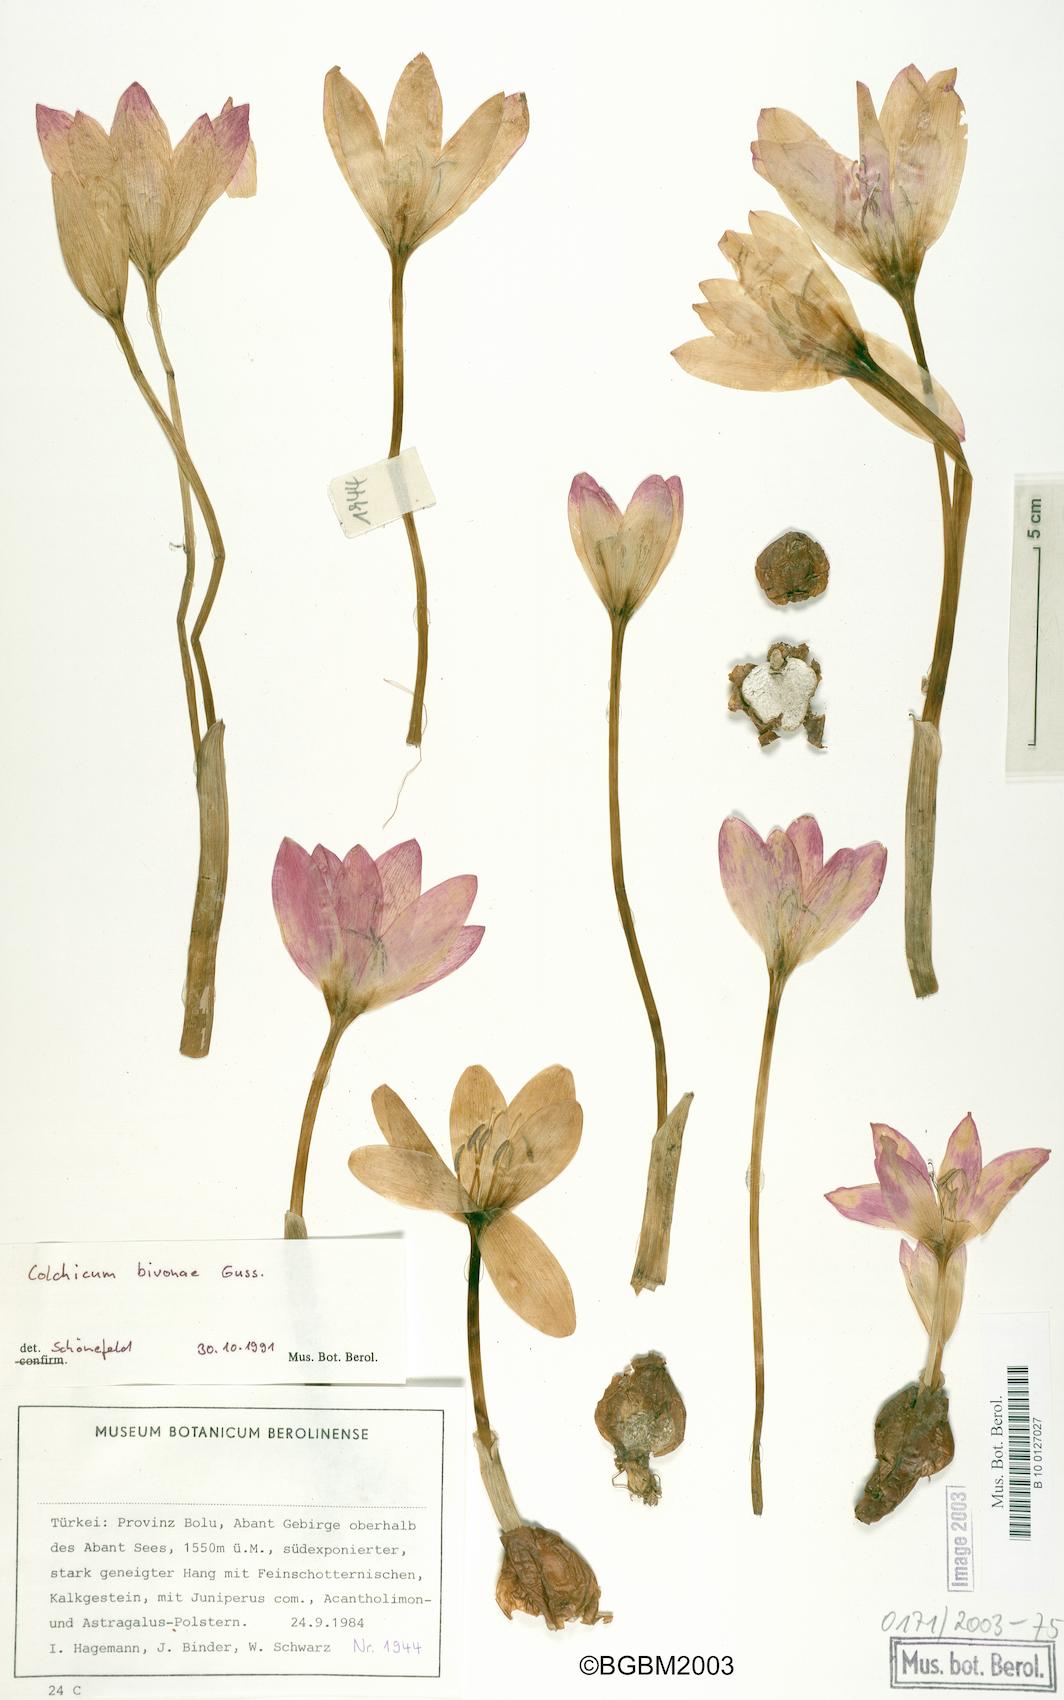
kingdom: Plantae
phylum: Tracheophyta
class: Liliopsida
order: Liliales
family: Colchicaceae
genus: Colchicum
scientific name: Colchicum bivonae
